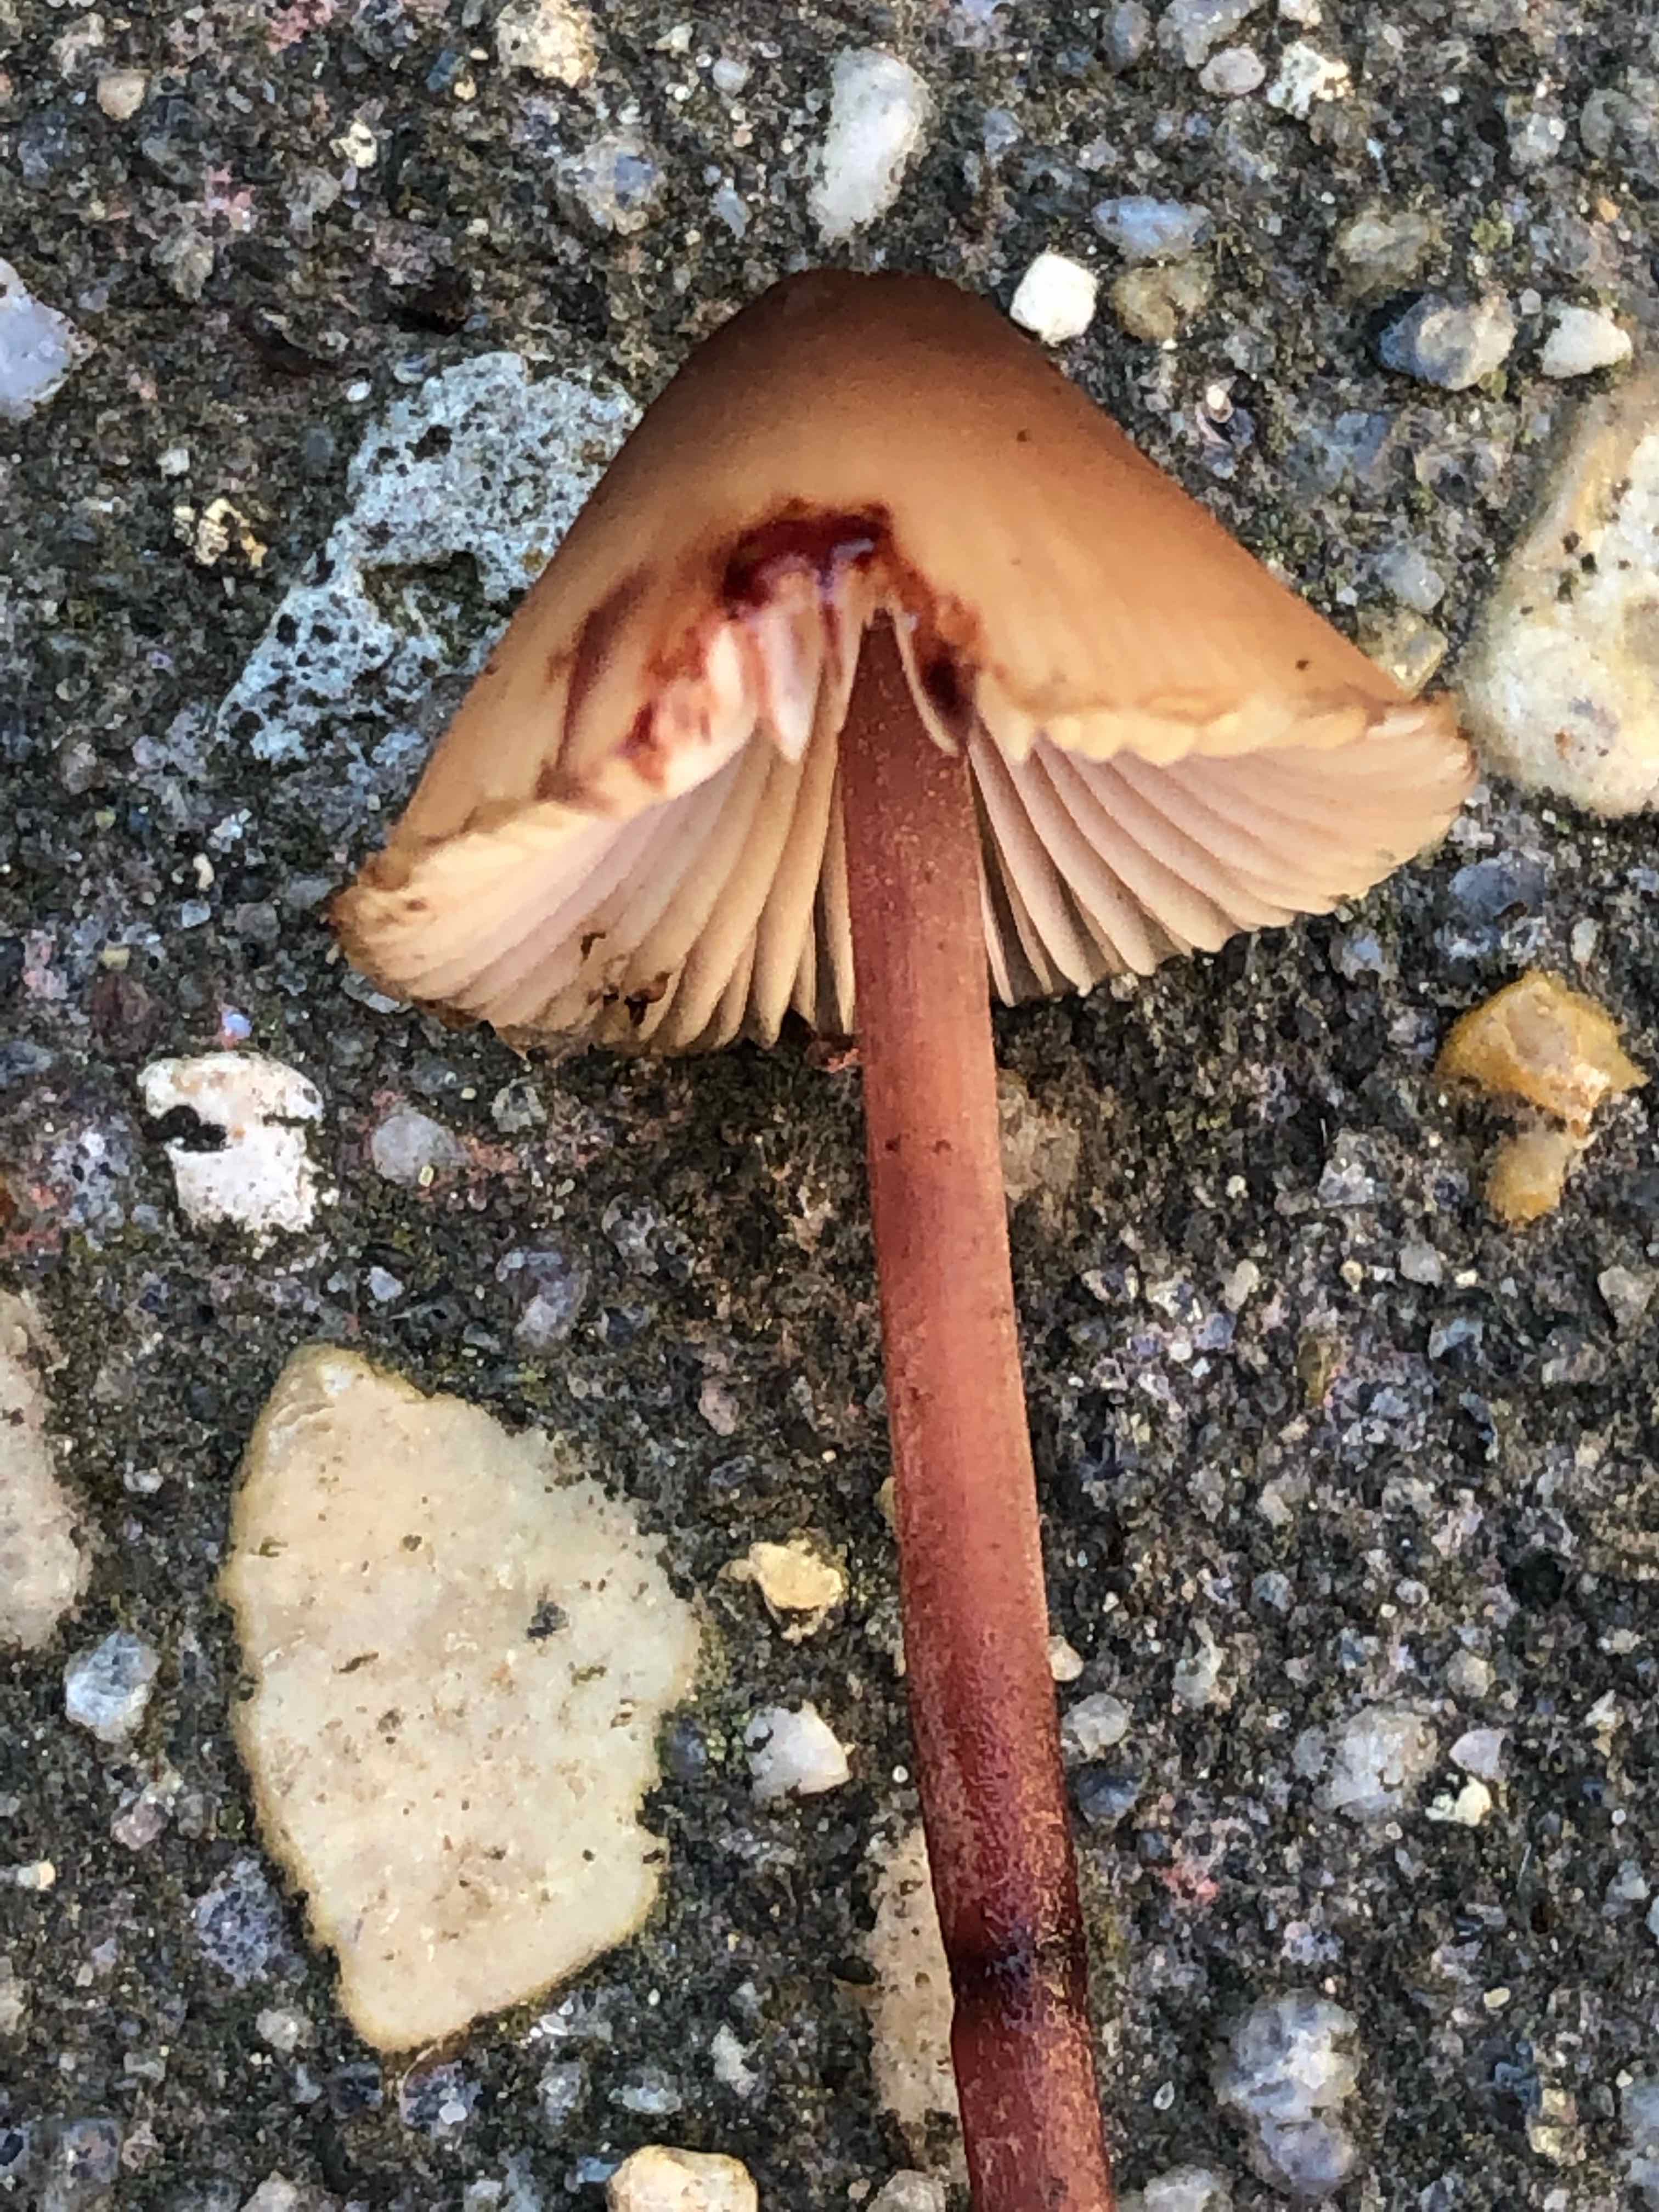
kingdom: Fungi
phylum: Basidiomycota
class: Agaricomycetes
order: Agaricales
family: Mycenaceae
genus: Mycena
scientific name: Mycena haematopus
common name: blødende huesvamp
